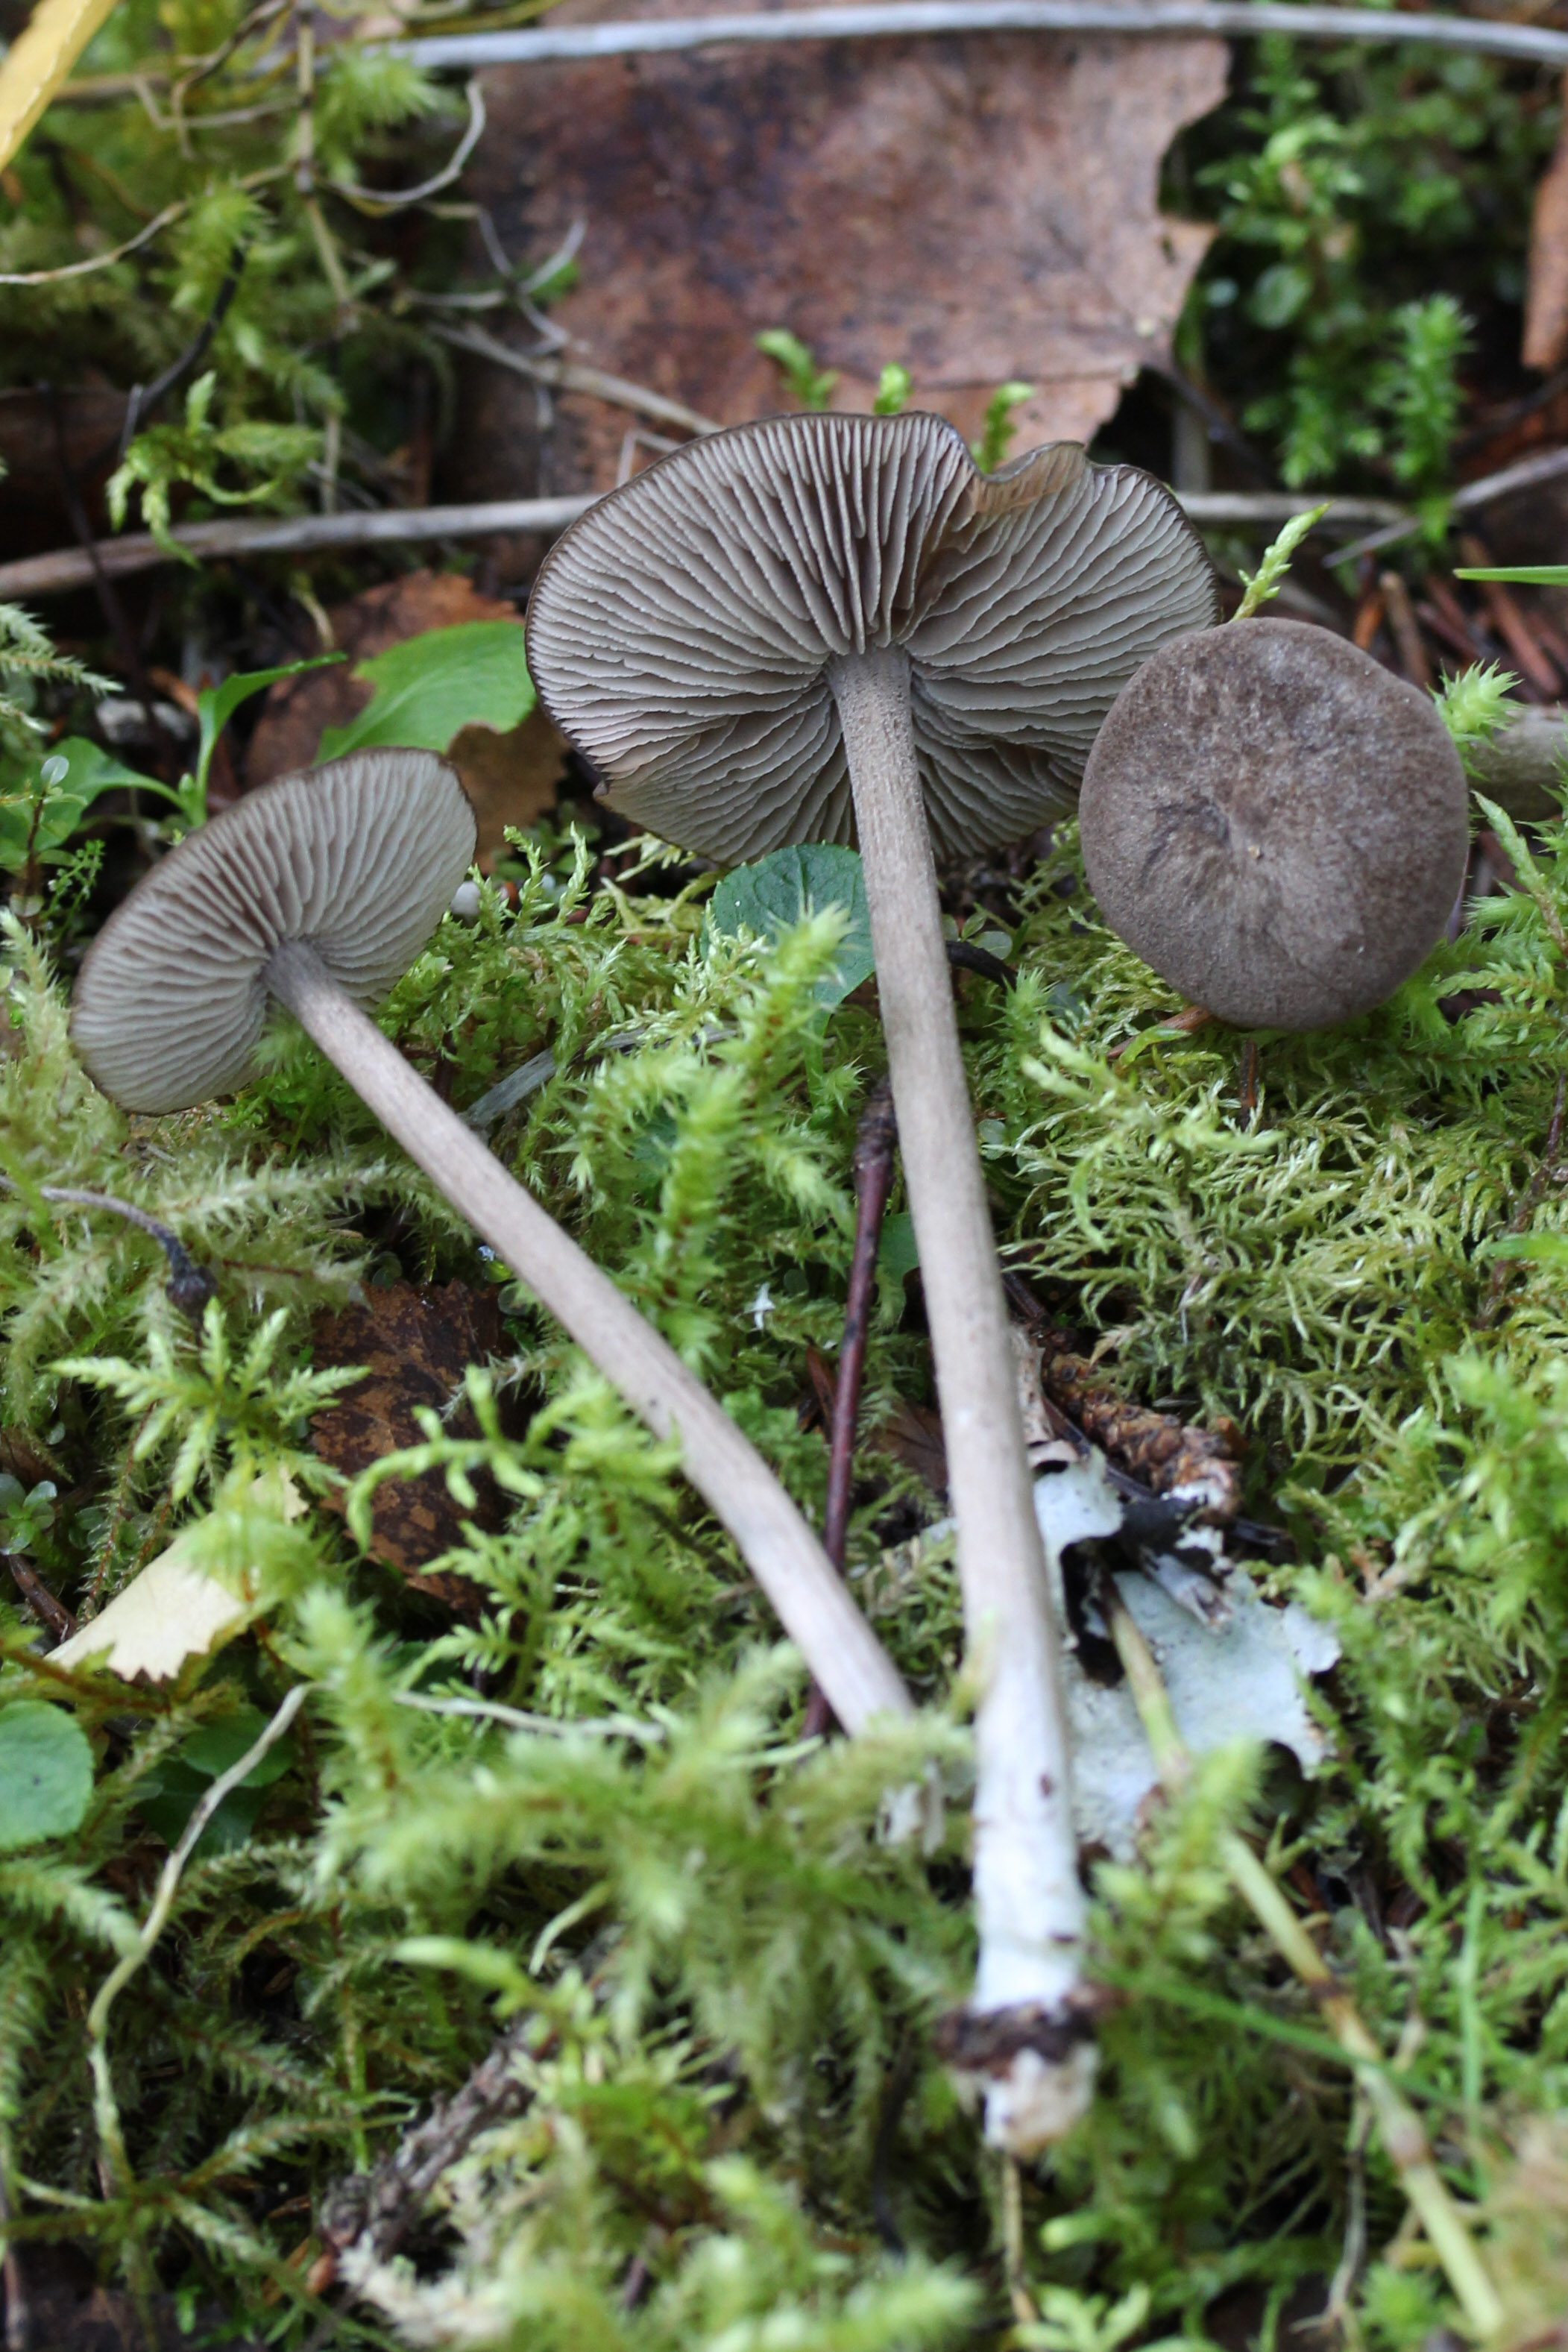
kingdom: Fungi
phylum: Basidiomycota
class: Agaricomycetes
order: Agaricales
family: Entolomataceae
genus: Entoloma
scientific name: Entoloma jubatum
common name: Sepia pinkgill
